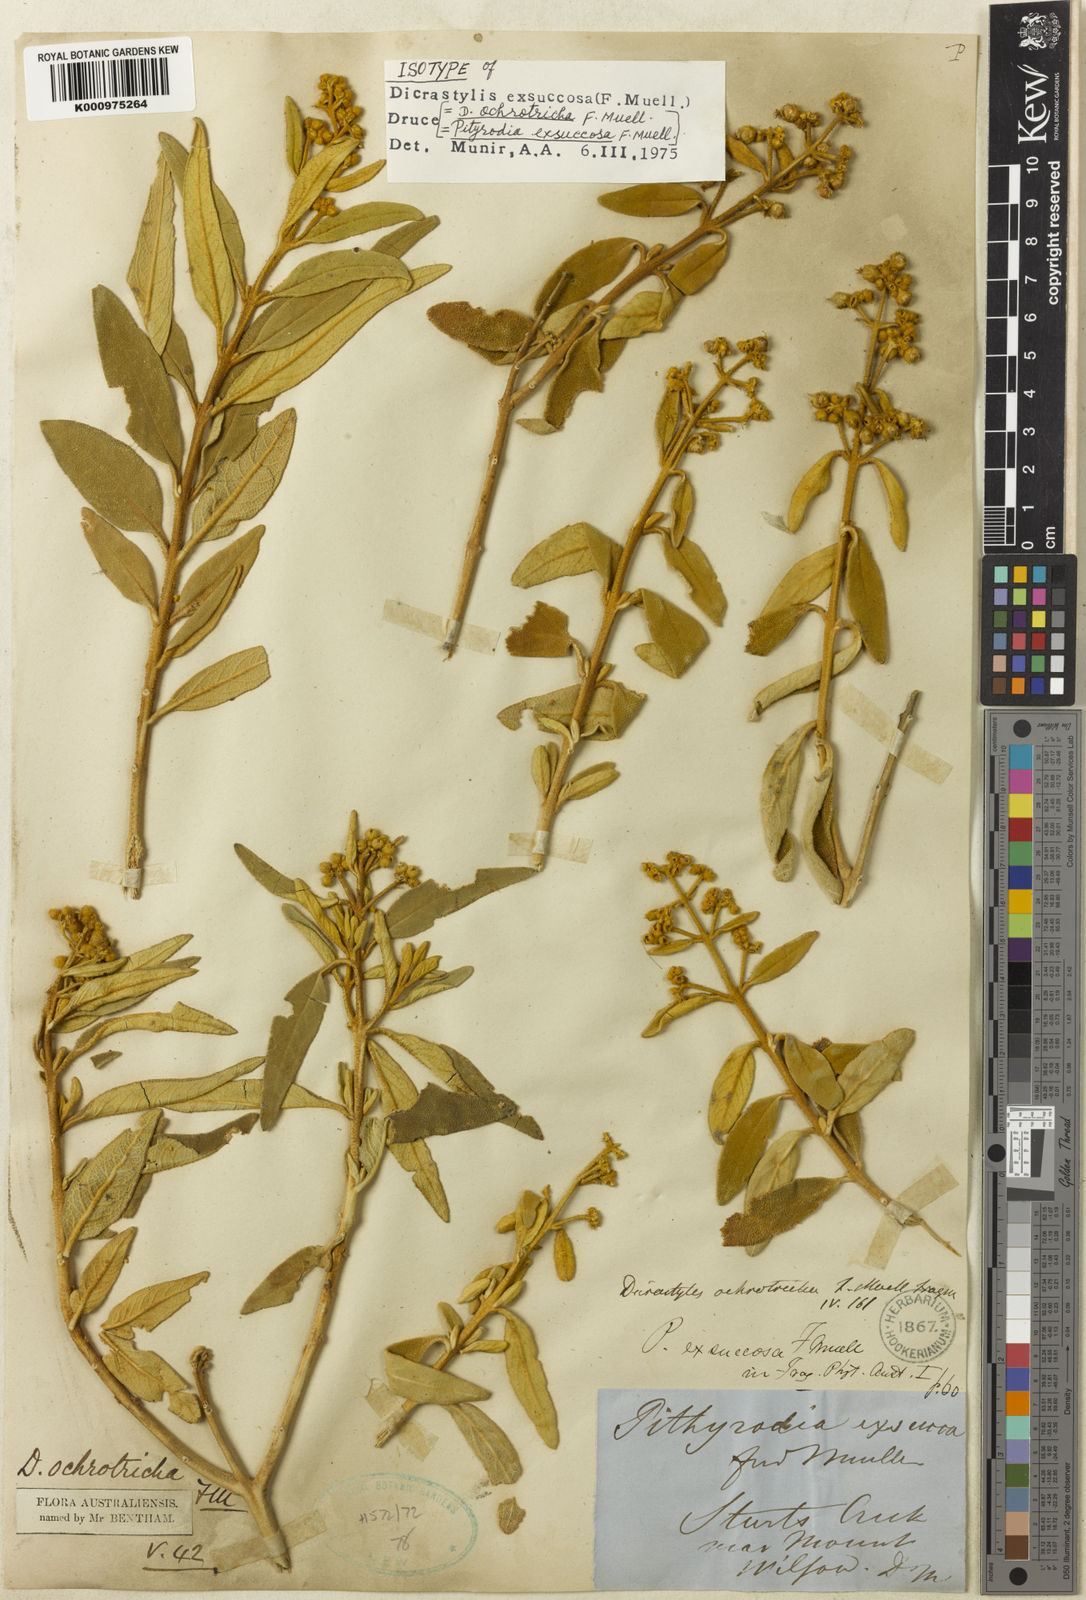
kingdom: Plantae
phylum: Tracheophyta
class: Magnoliopsida
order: Lamiales
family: Lamiaceae
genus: Dicrastylis
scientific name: Dicrastylis exsuccosa
